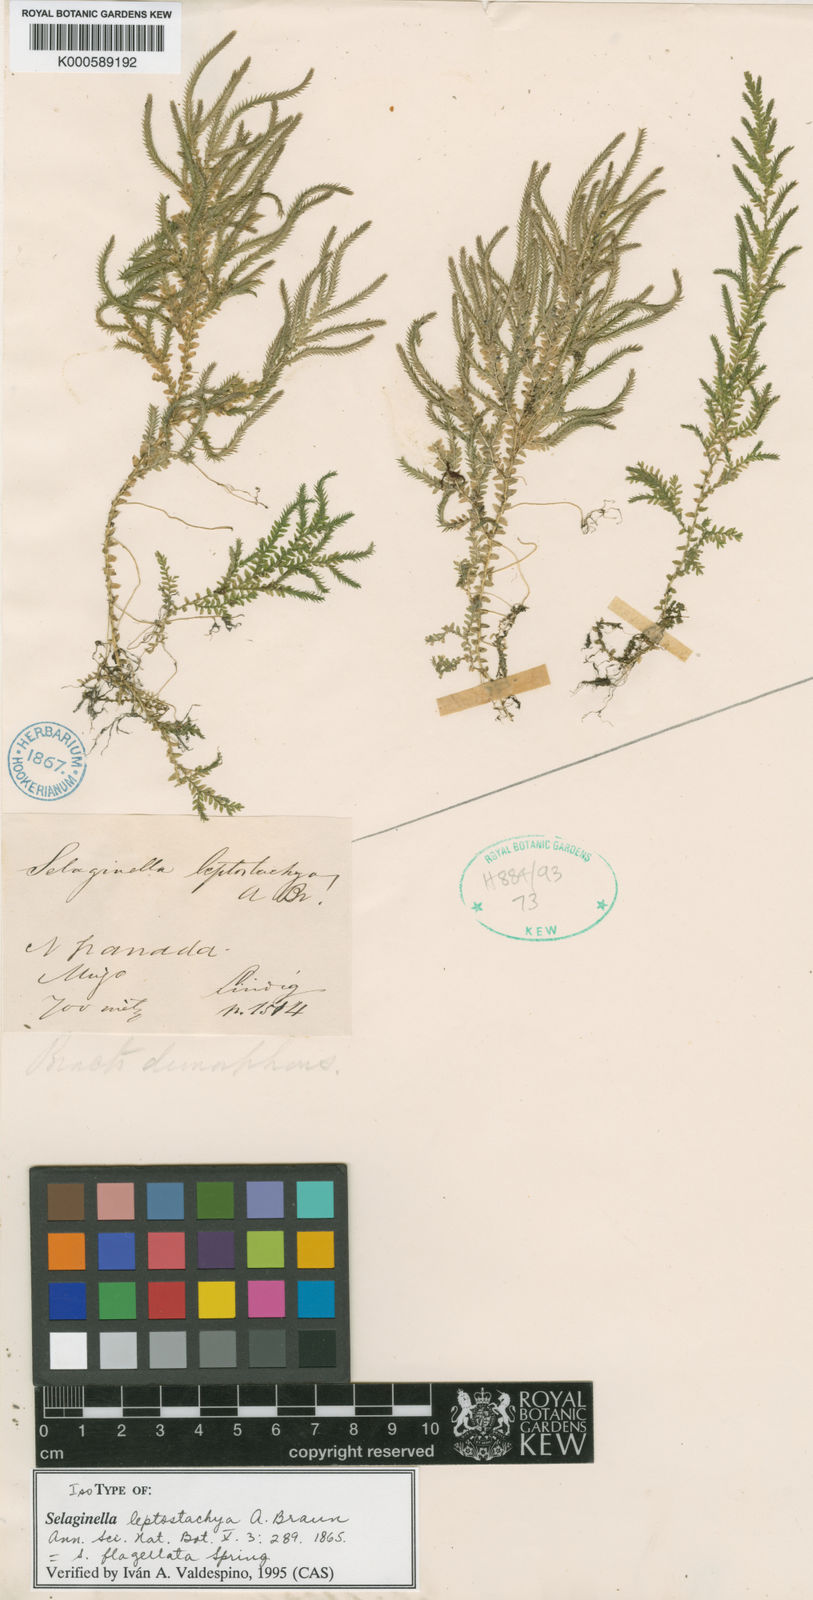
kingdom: Plantae
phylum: Tracheophyta
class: Lycopodiopsida
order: Selaginellales
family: Selaginellaceae
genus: Selaginella
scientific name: Selaginella flagellata
